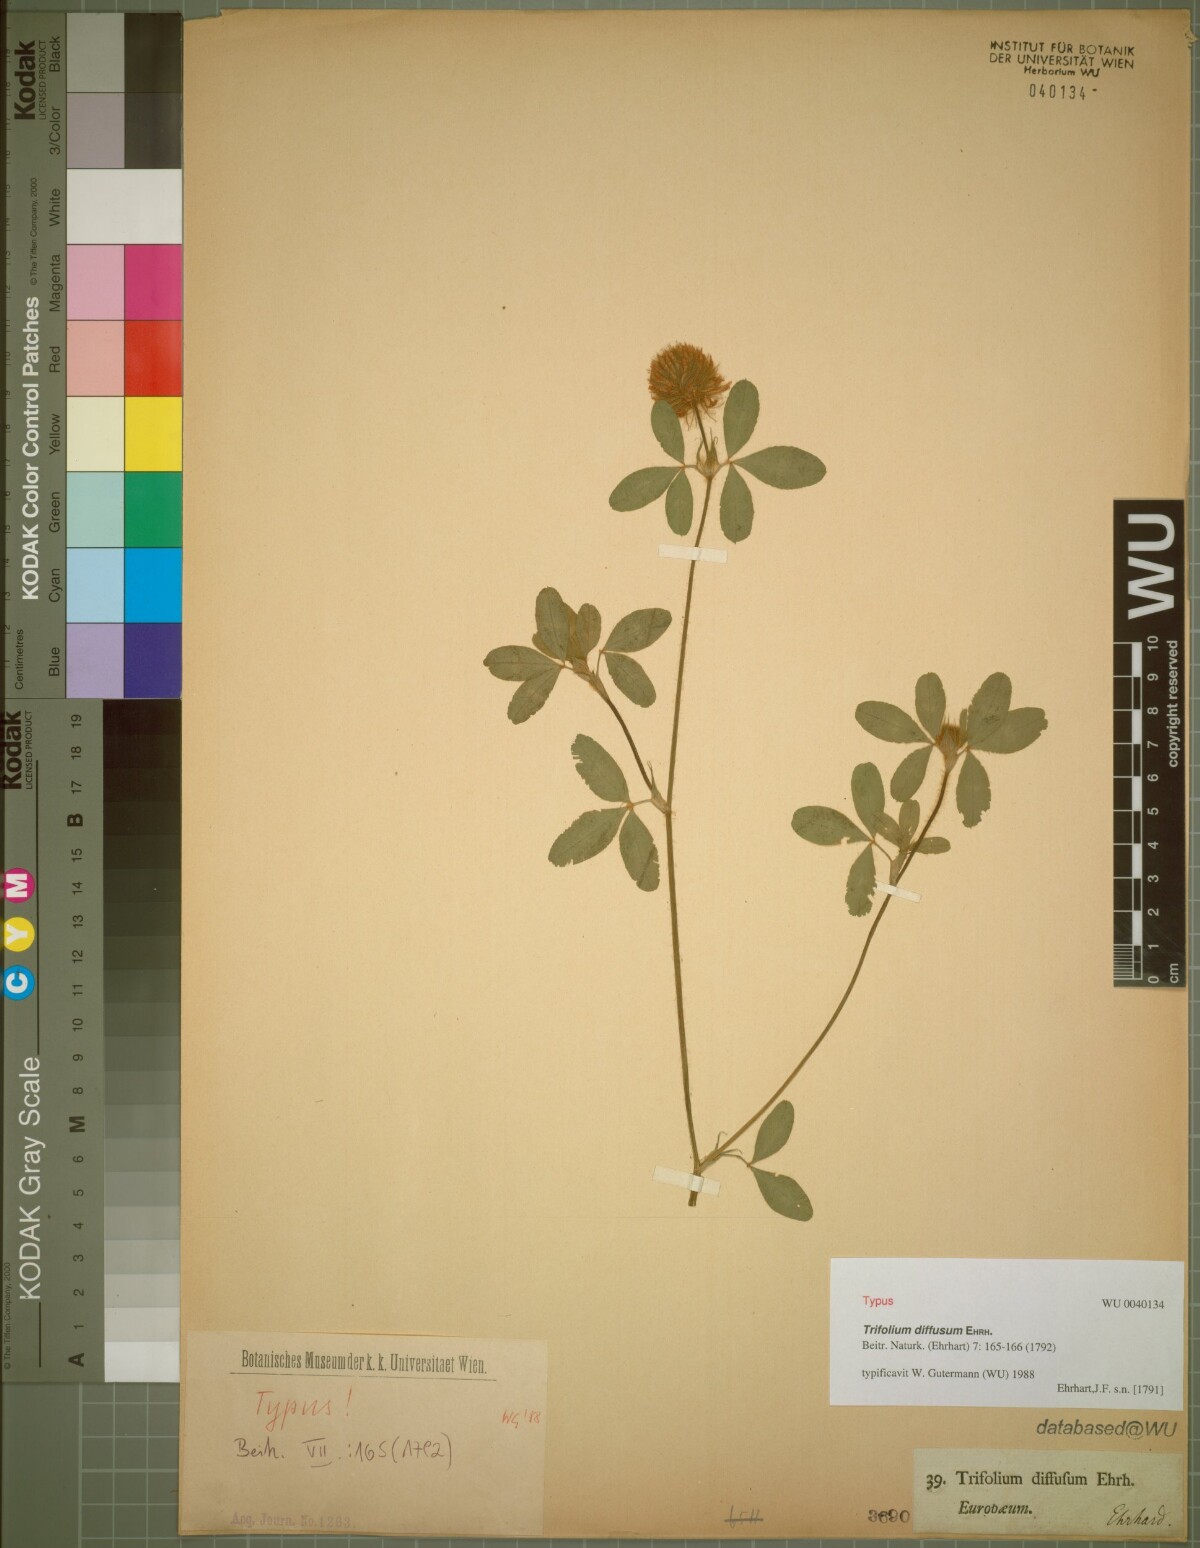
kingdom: Plantae
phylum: Tracheophyta
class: Magnoliopsida
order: Fabales
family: Fabaceae
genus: Trifolium
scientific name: Trifolium diffusum
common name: Diffuse clover
